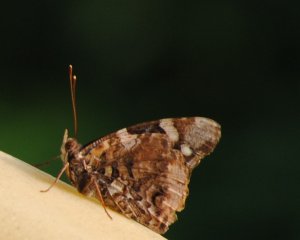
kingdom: Animalia
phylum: Arthropoda
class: Insecta
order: Lepidoptera
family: Nymphalidae
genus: Vanessa
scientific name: Vanessa atalanta
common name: Red Admiral
